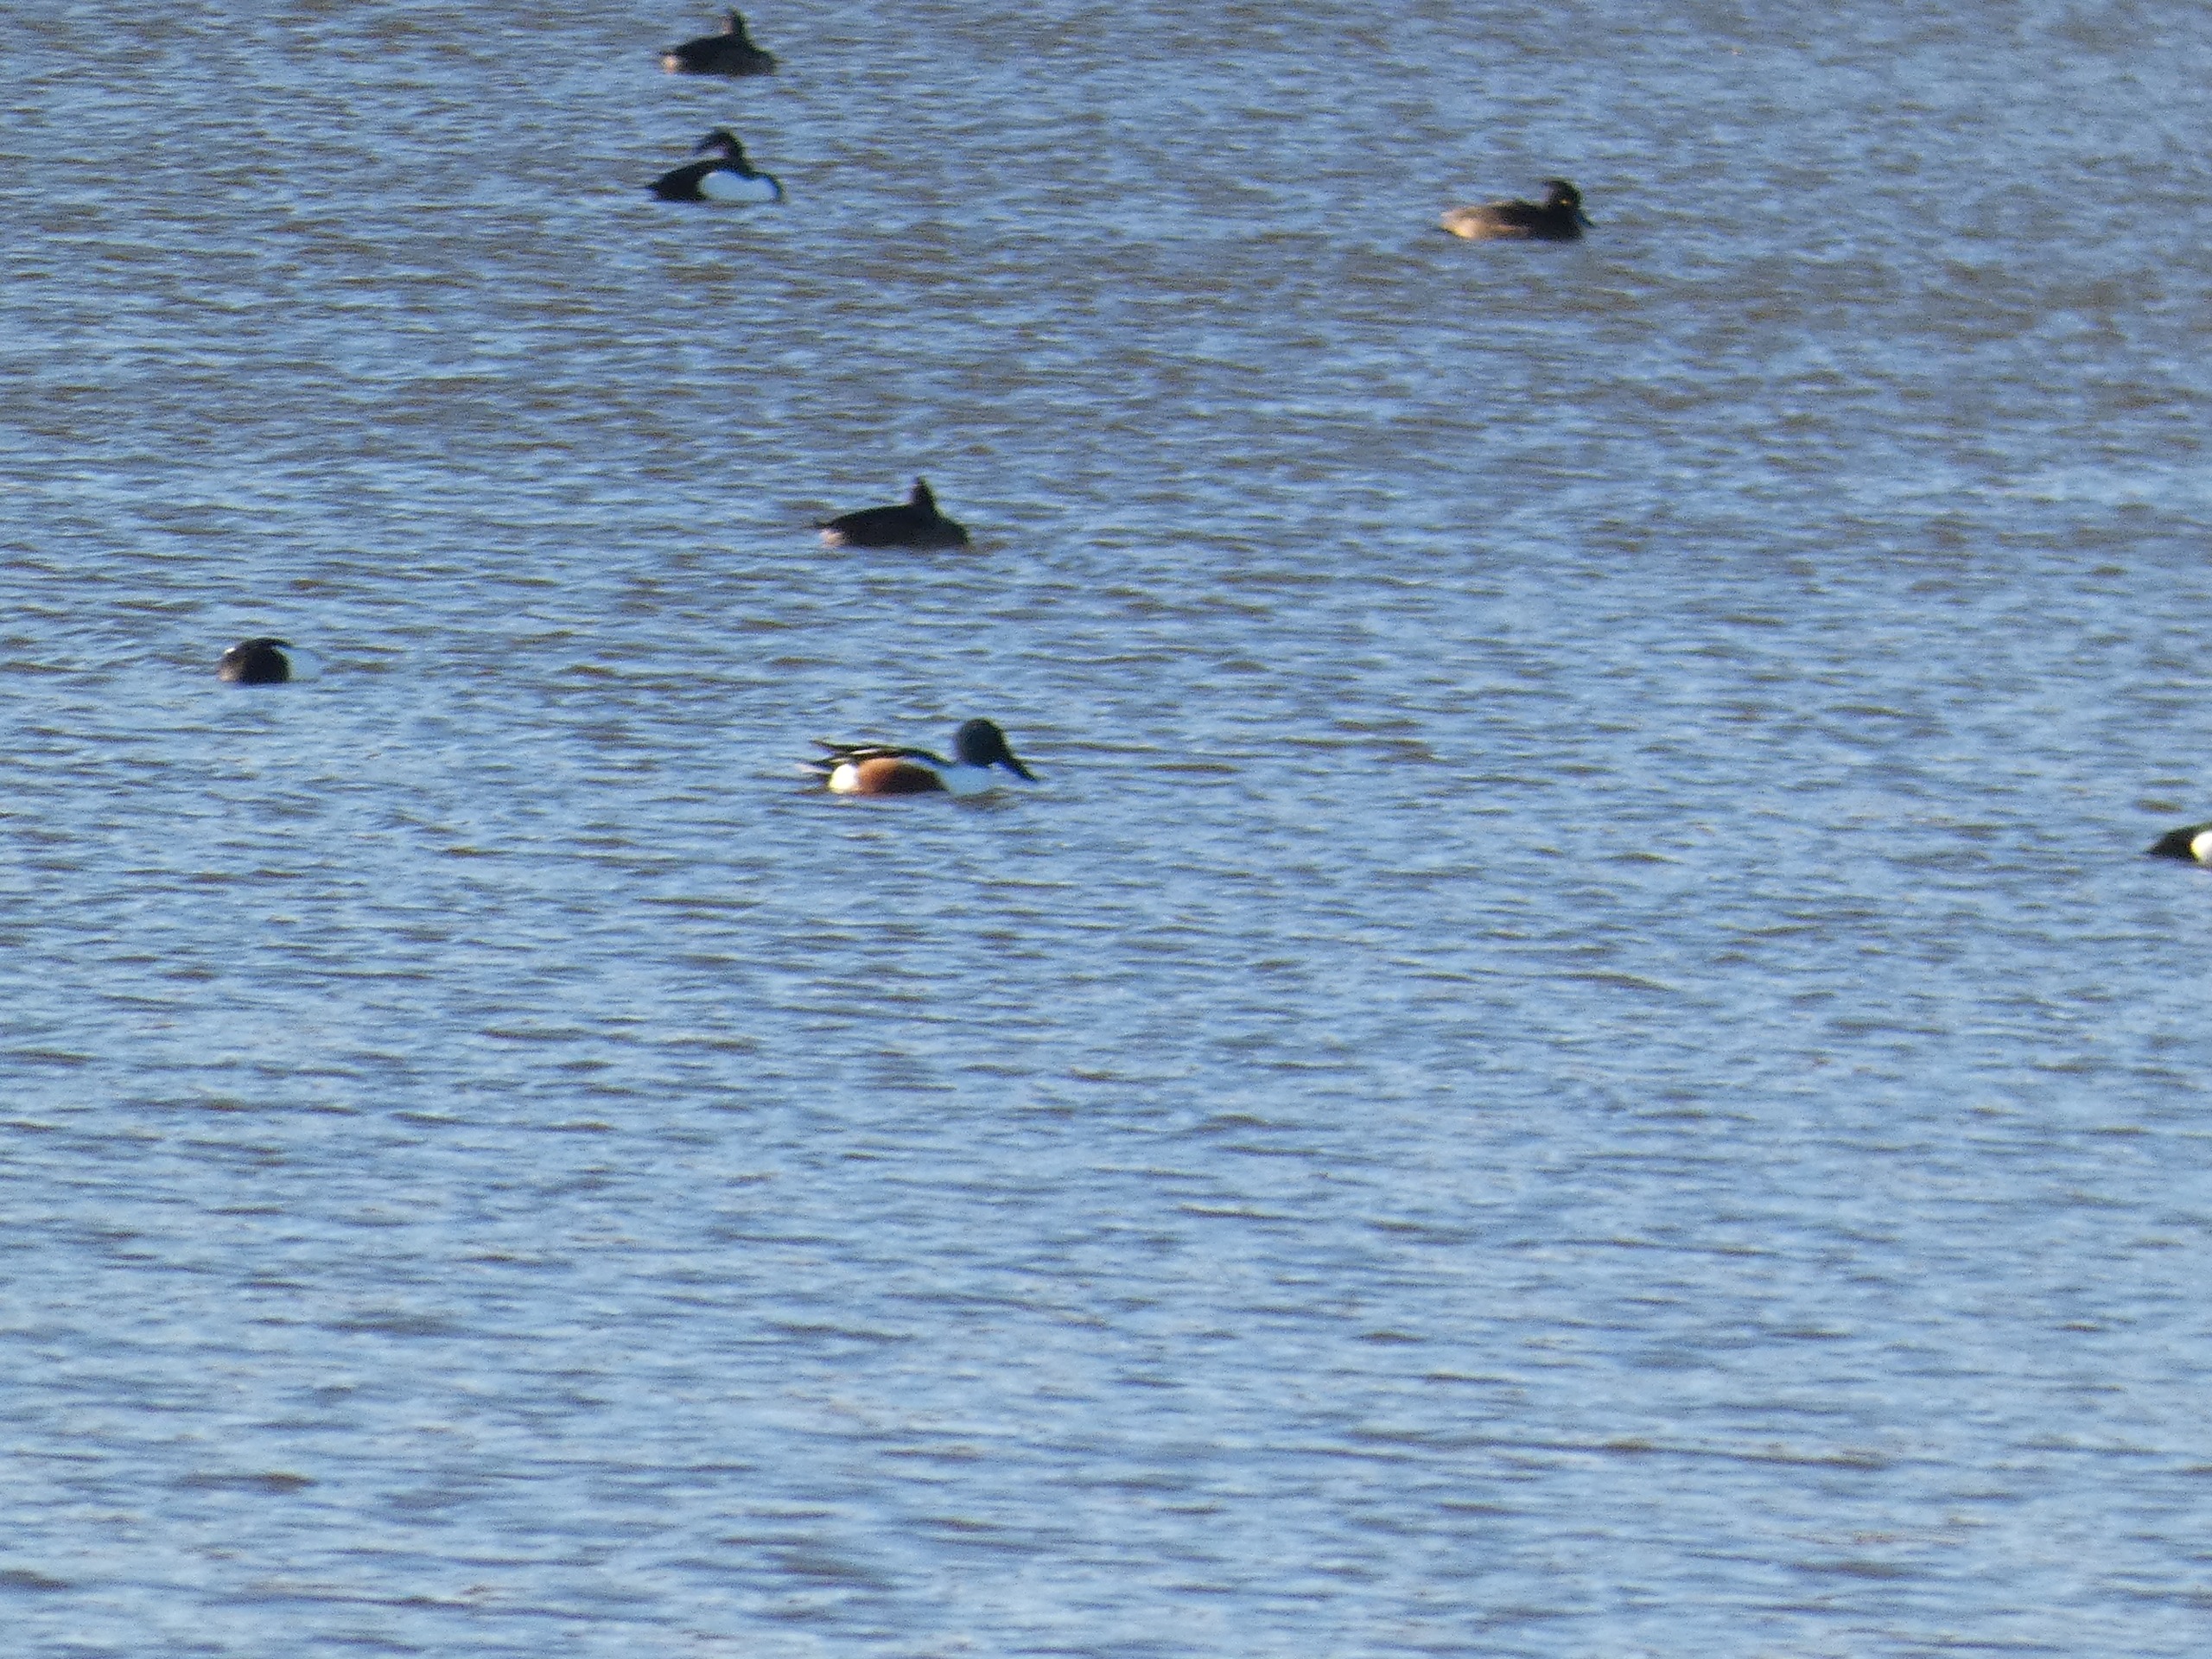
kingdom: Animalia
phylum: Chordata
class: Aves
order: Anseriformes
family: Anatidae
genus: Spatula
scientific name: Spatula clypeata
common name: Skeand
